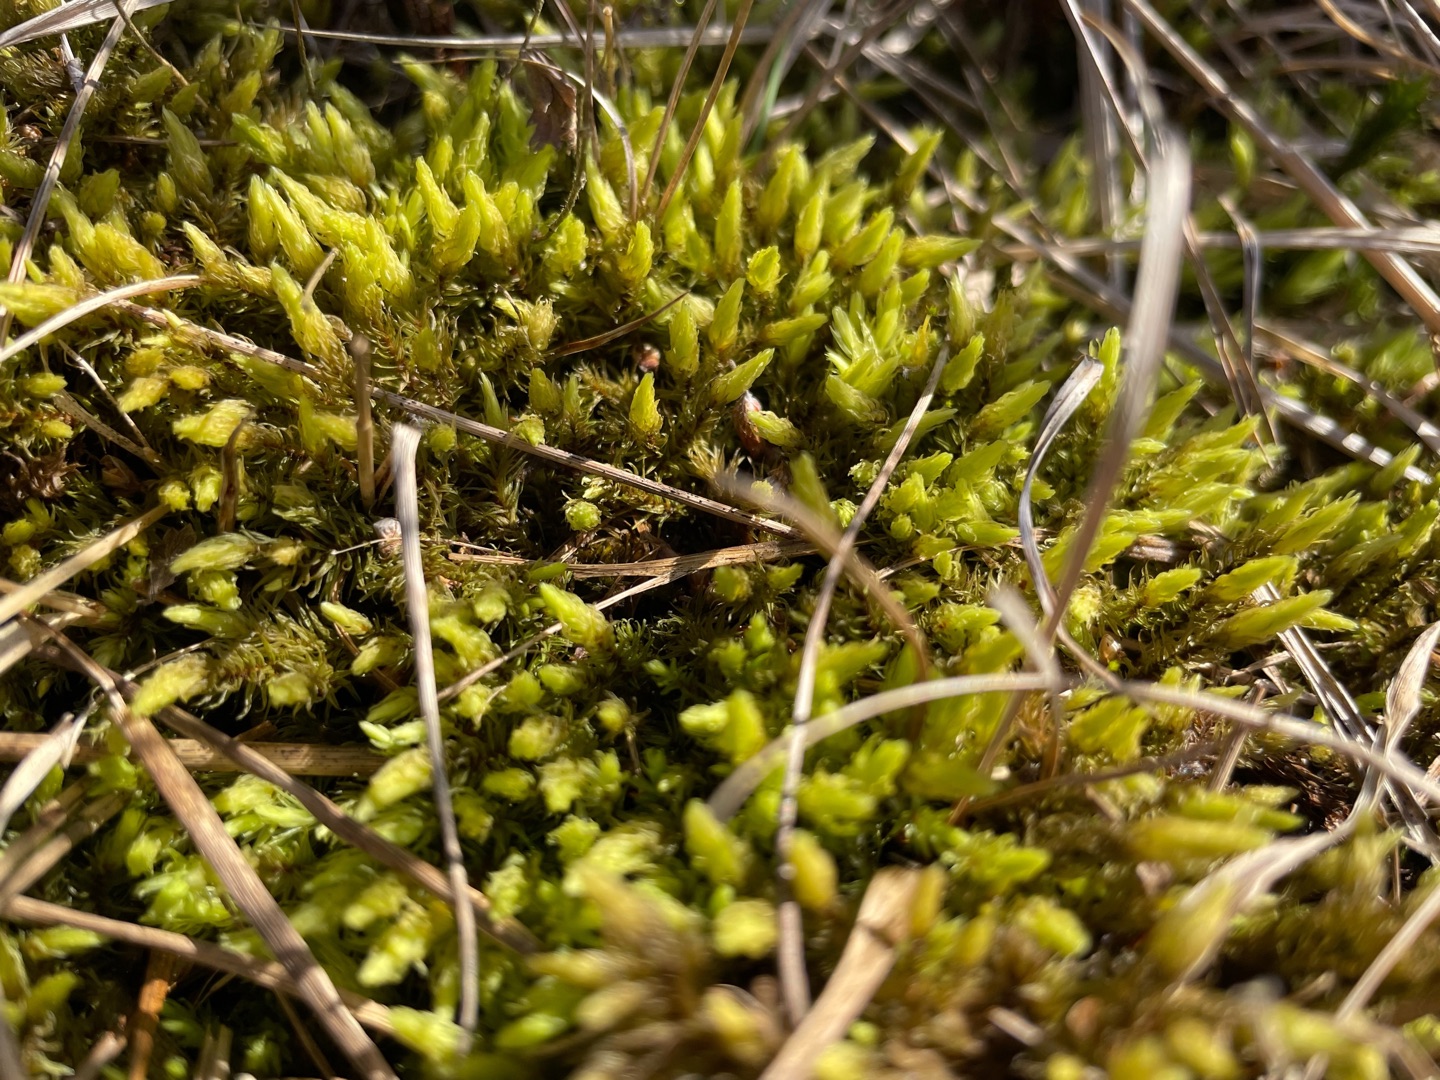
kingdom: Plantae
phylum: Bryophyta
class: Bryopsida
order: Aulacomniales
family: Aulacomniaceae
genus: Aulacomnium
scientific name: Aulacomnium palustre
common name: Almindelig filtmos
